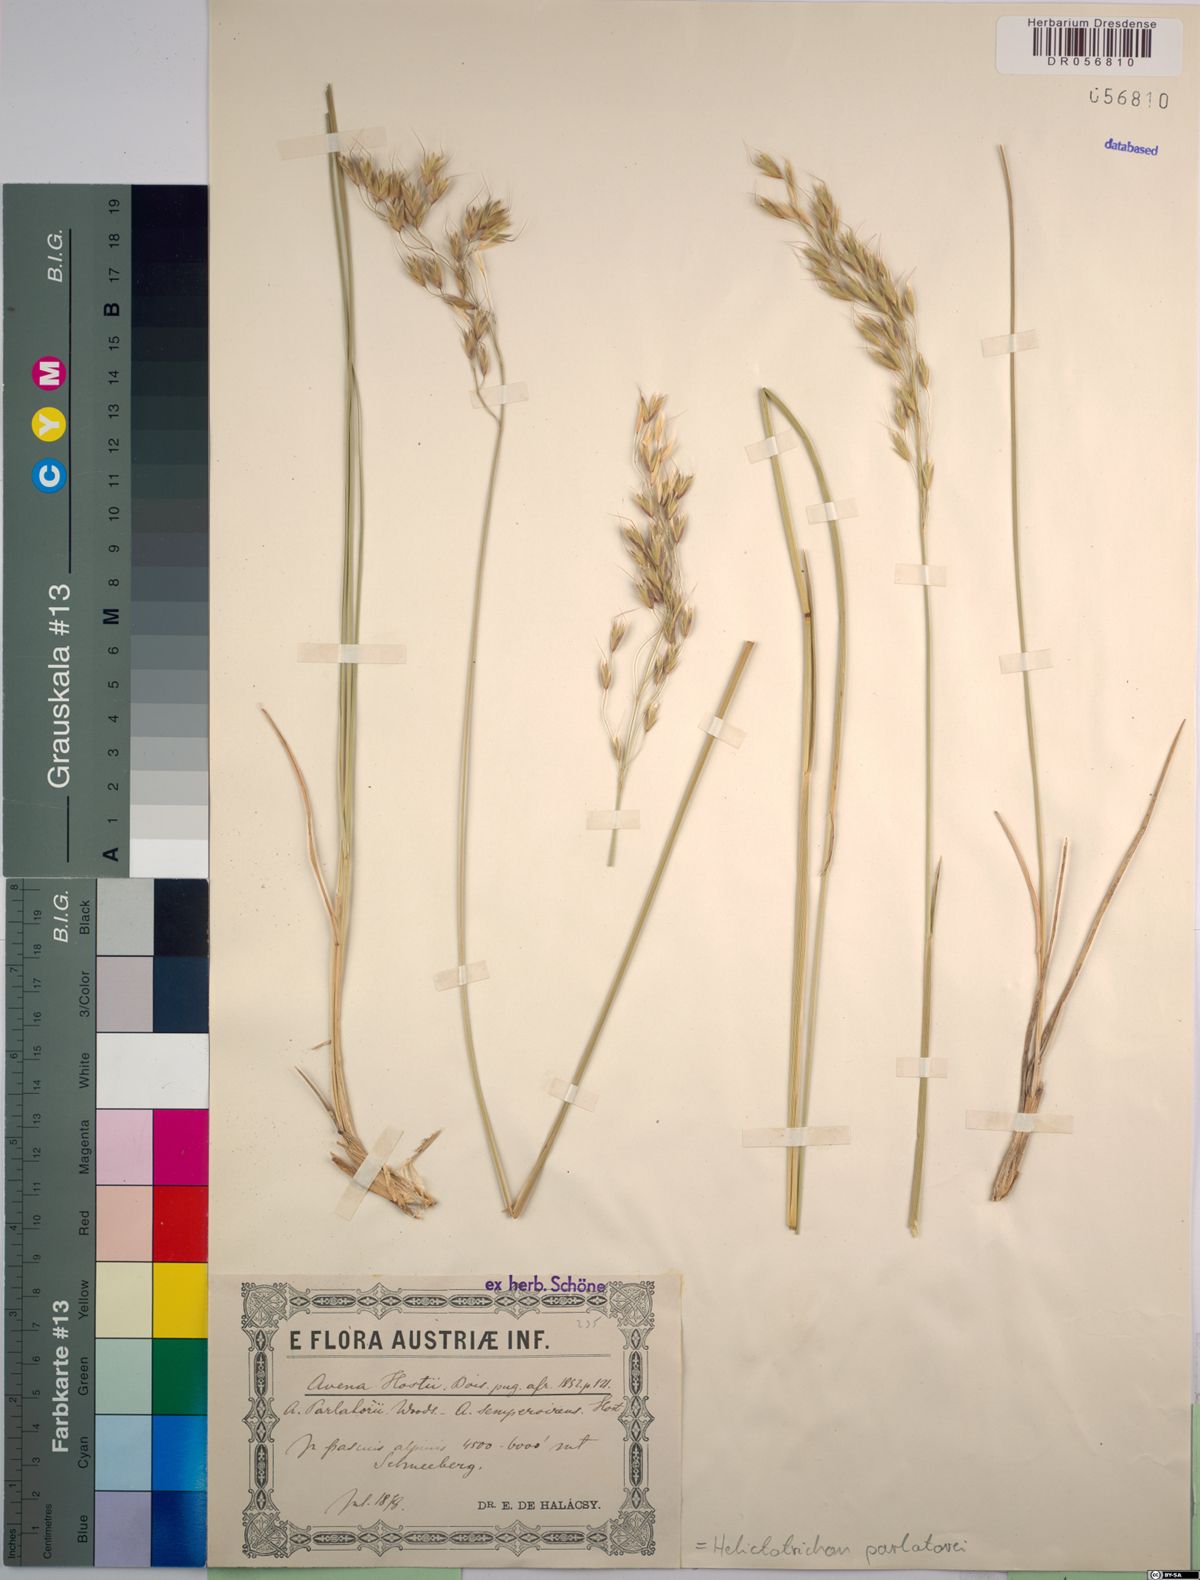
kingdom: Plantae
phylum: Tracheophyta
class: Liliopsida
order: Poales
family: Poaceae
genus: Helictotrichon
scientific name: Helictotrichon parlatorei
